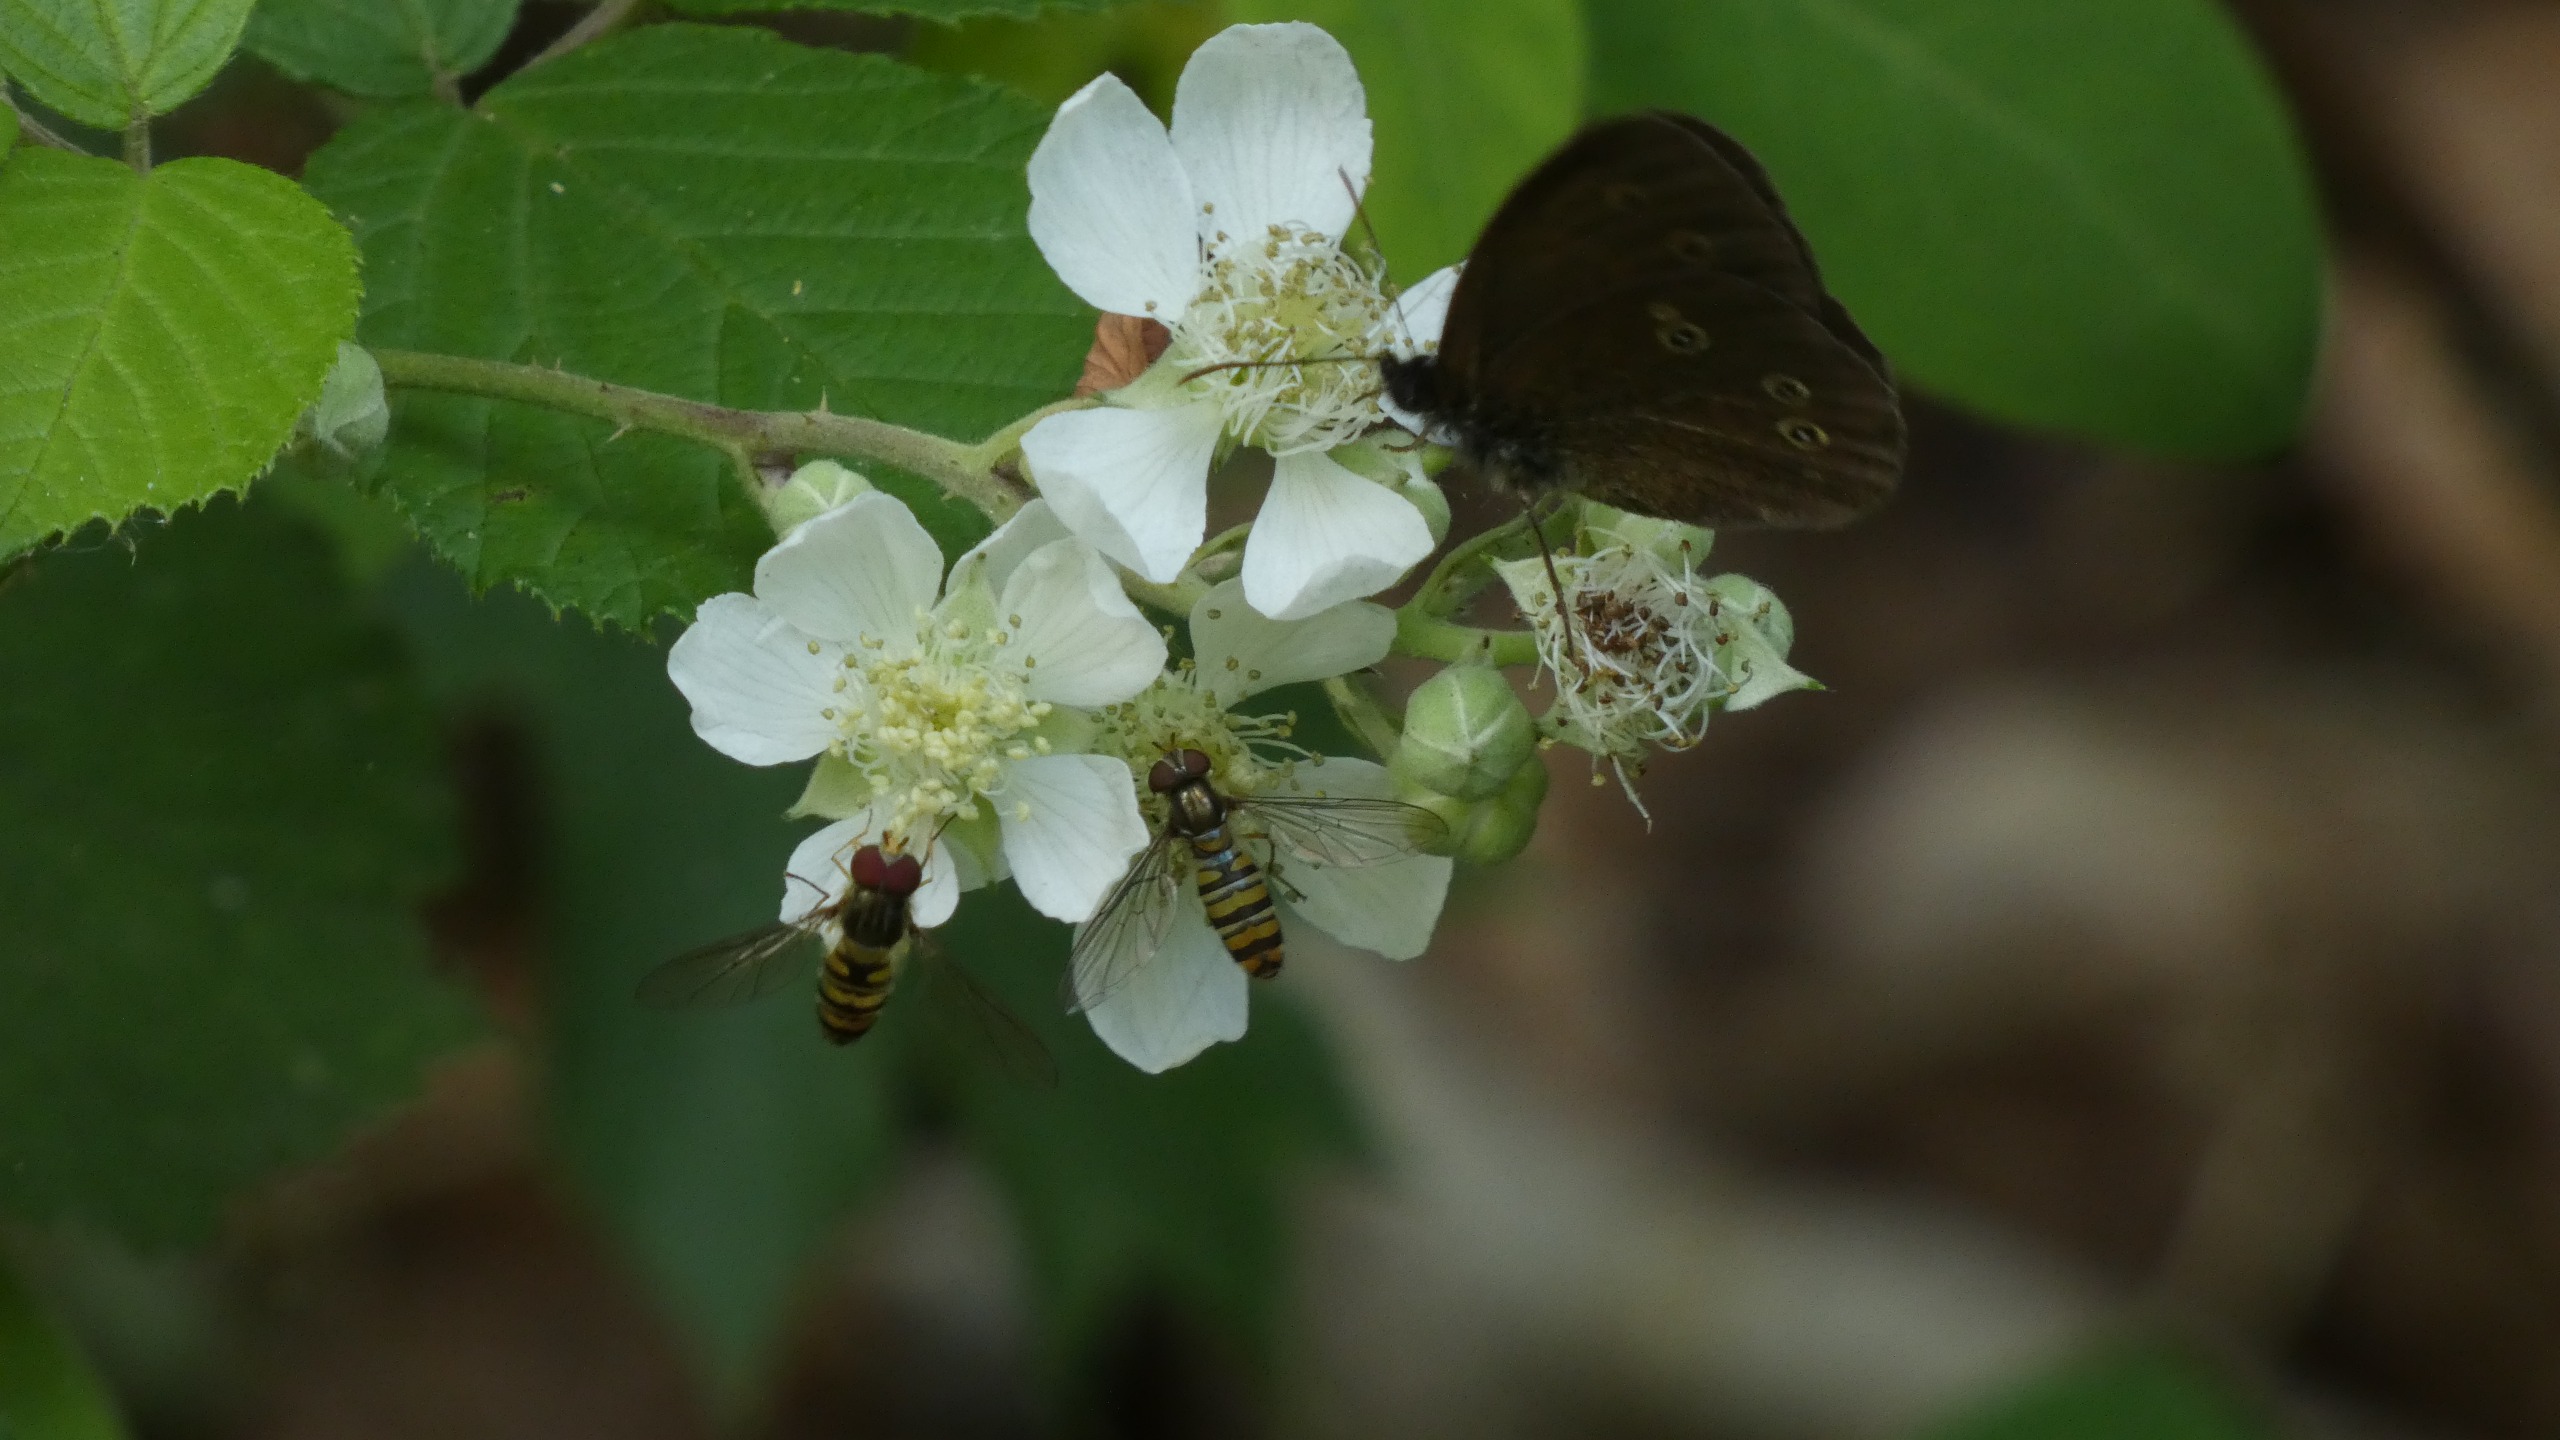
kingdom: Animalia
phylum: Arthropoda
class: Insecta
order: Diptera
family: Syrphidae
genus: Episyrphus
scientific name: Episyrphus balteatus
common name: Dobbeltbåndet svirreflue
